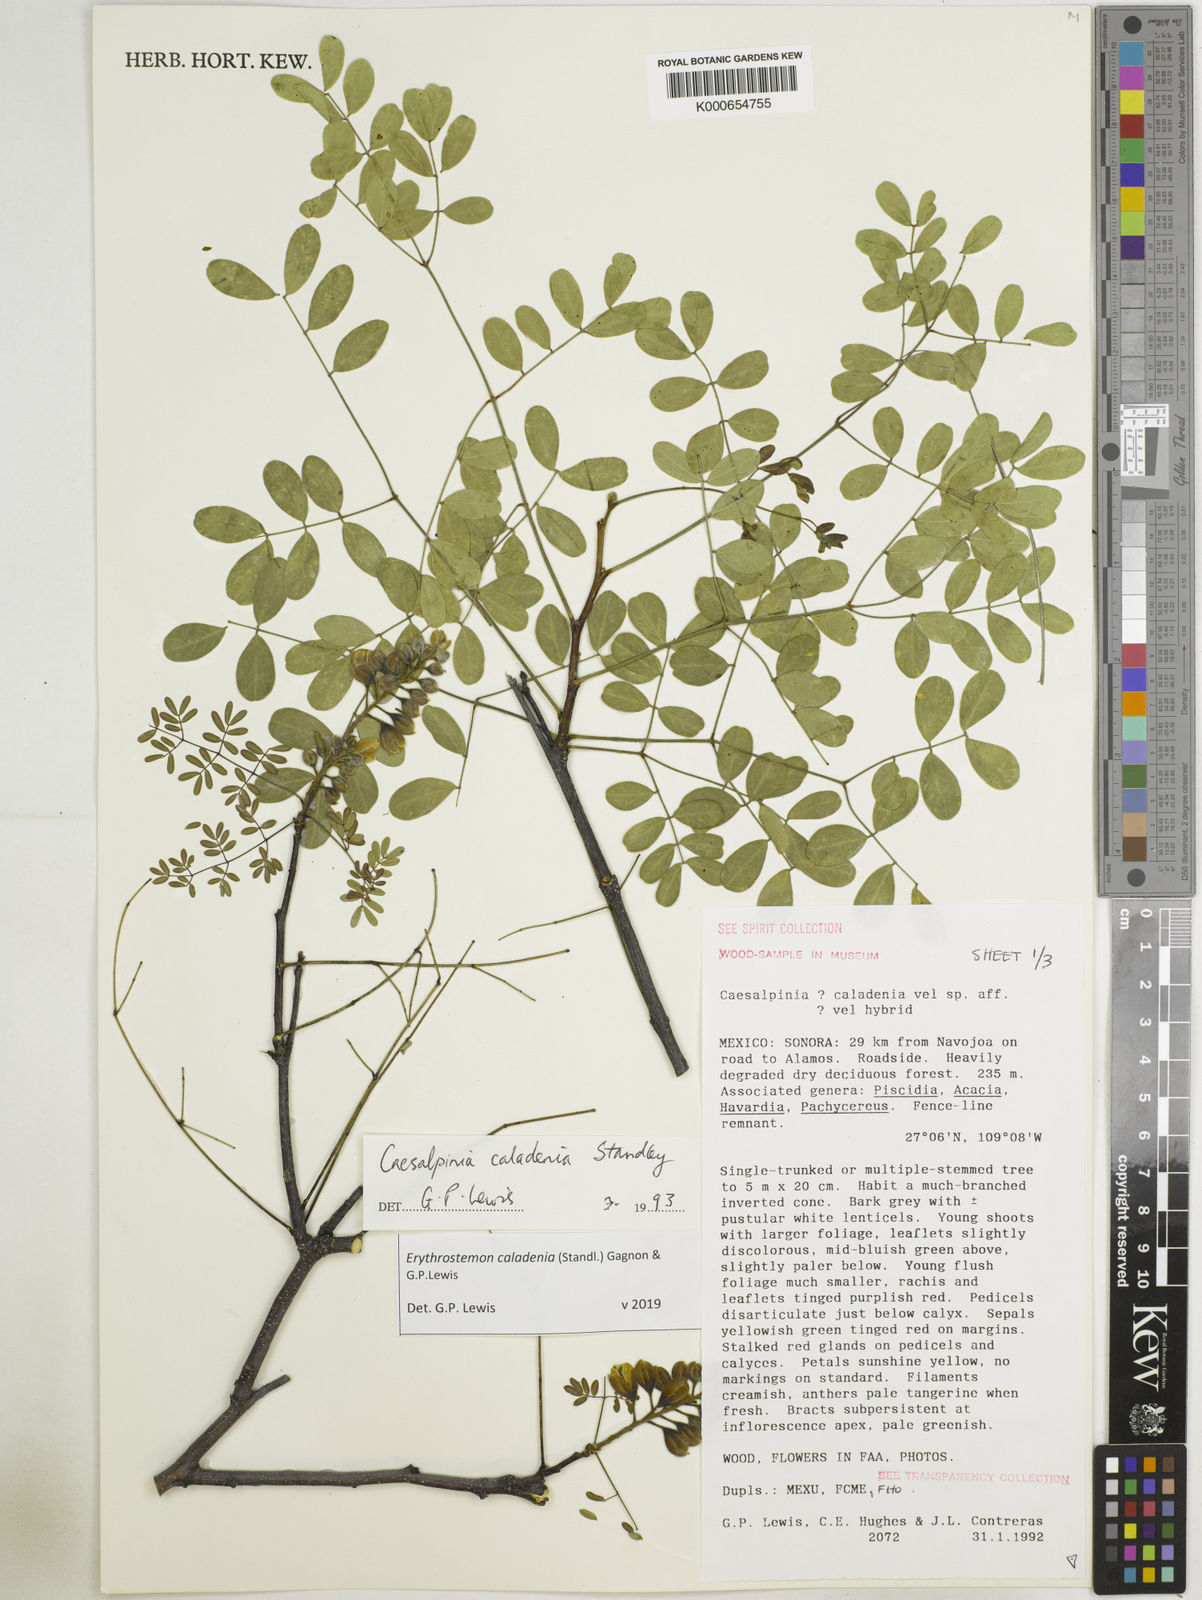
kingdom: Plantae
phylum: Tracheophyta
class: Magnoliopsida
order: Fabales
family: Fabaceae
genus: Erythrostemon
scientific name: Erythrostemon caladenia
